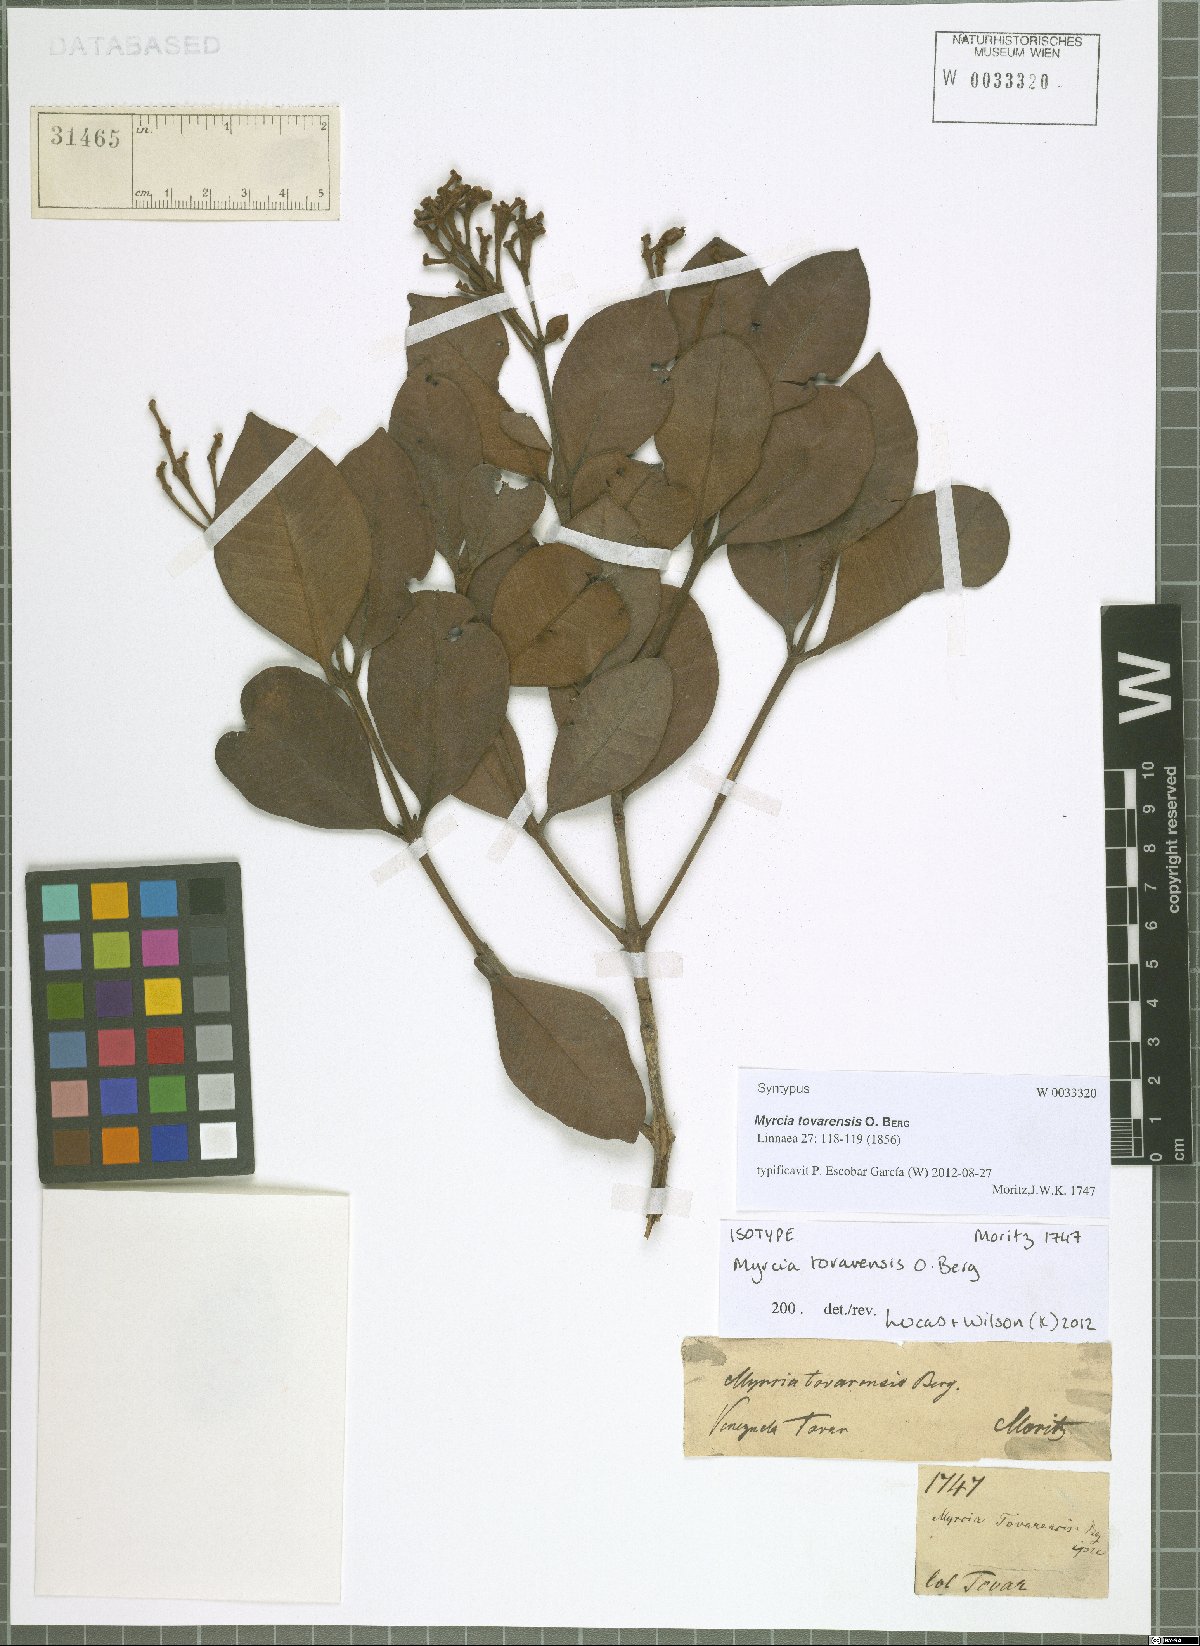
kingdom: Plantae
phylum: Tracheophyta
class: Magnoliopsida
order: Myrtales
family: Myrtaceae
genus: Myrcia
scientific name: Myrcia tovarensis
